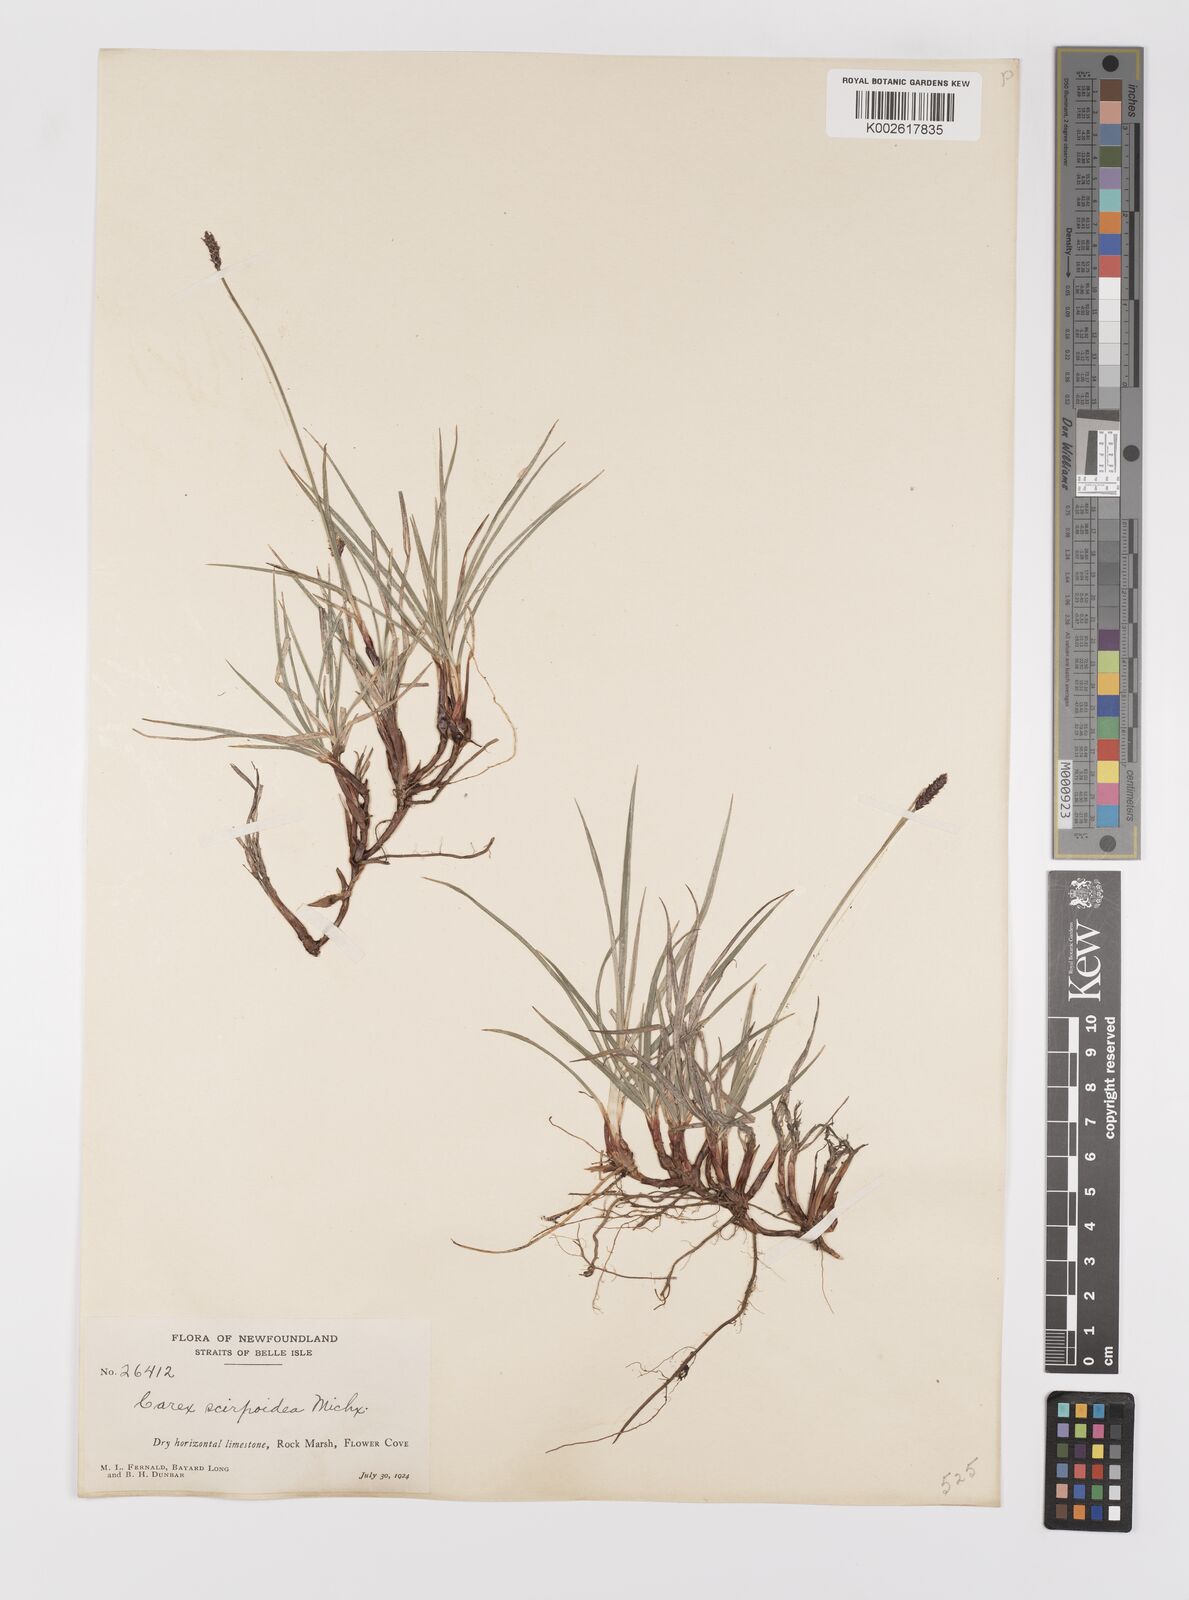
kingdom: Plantae
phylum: Tracheophyta
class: Liliopsida
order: Poales
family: Cyperaceae
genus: Carex
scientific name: Carex scirpoidea
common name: Canada single-spike sedge
